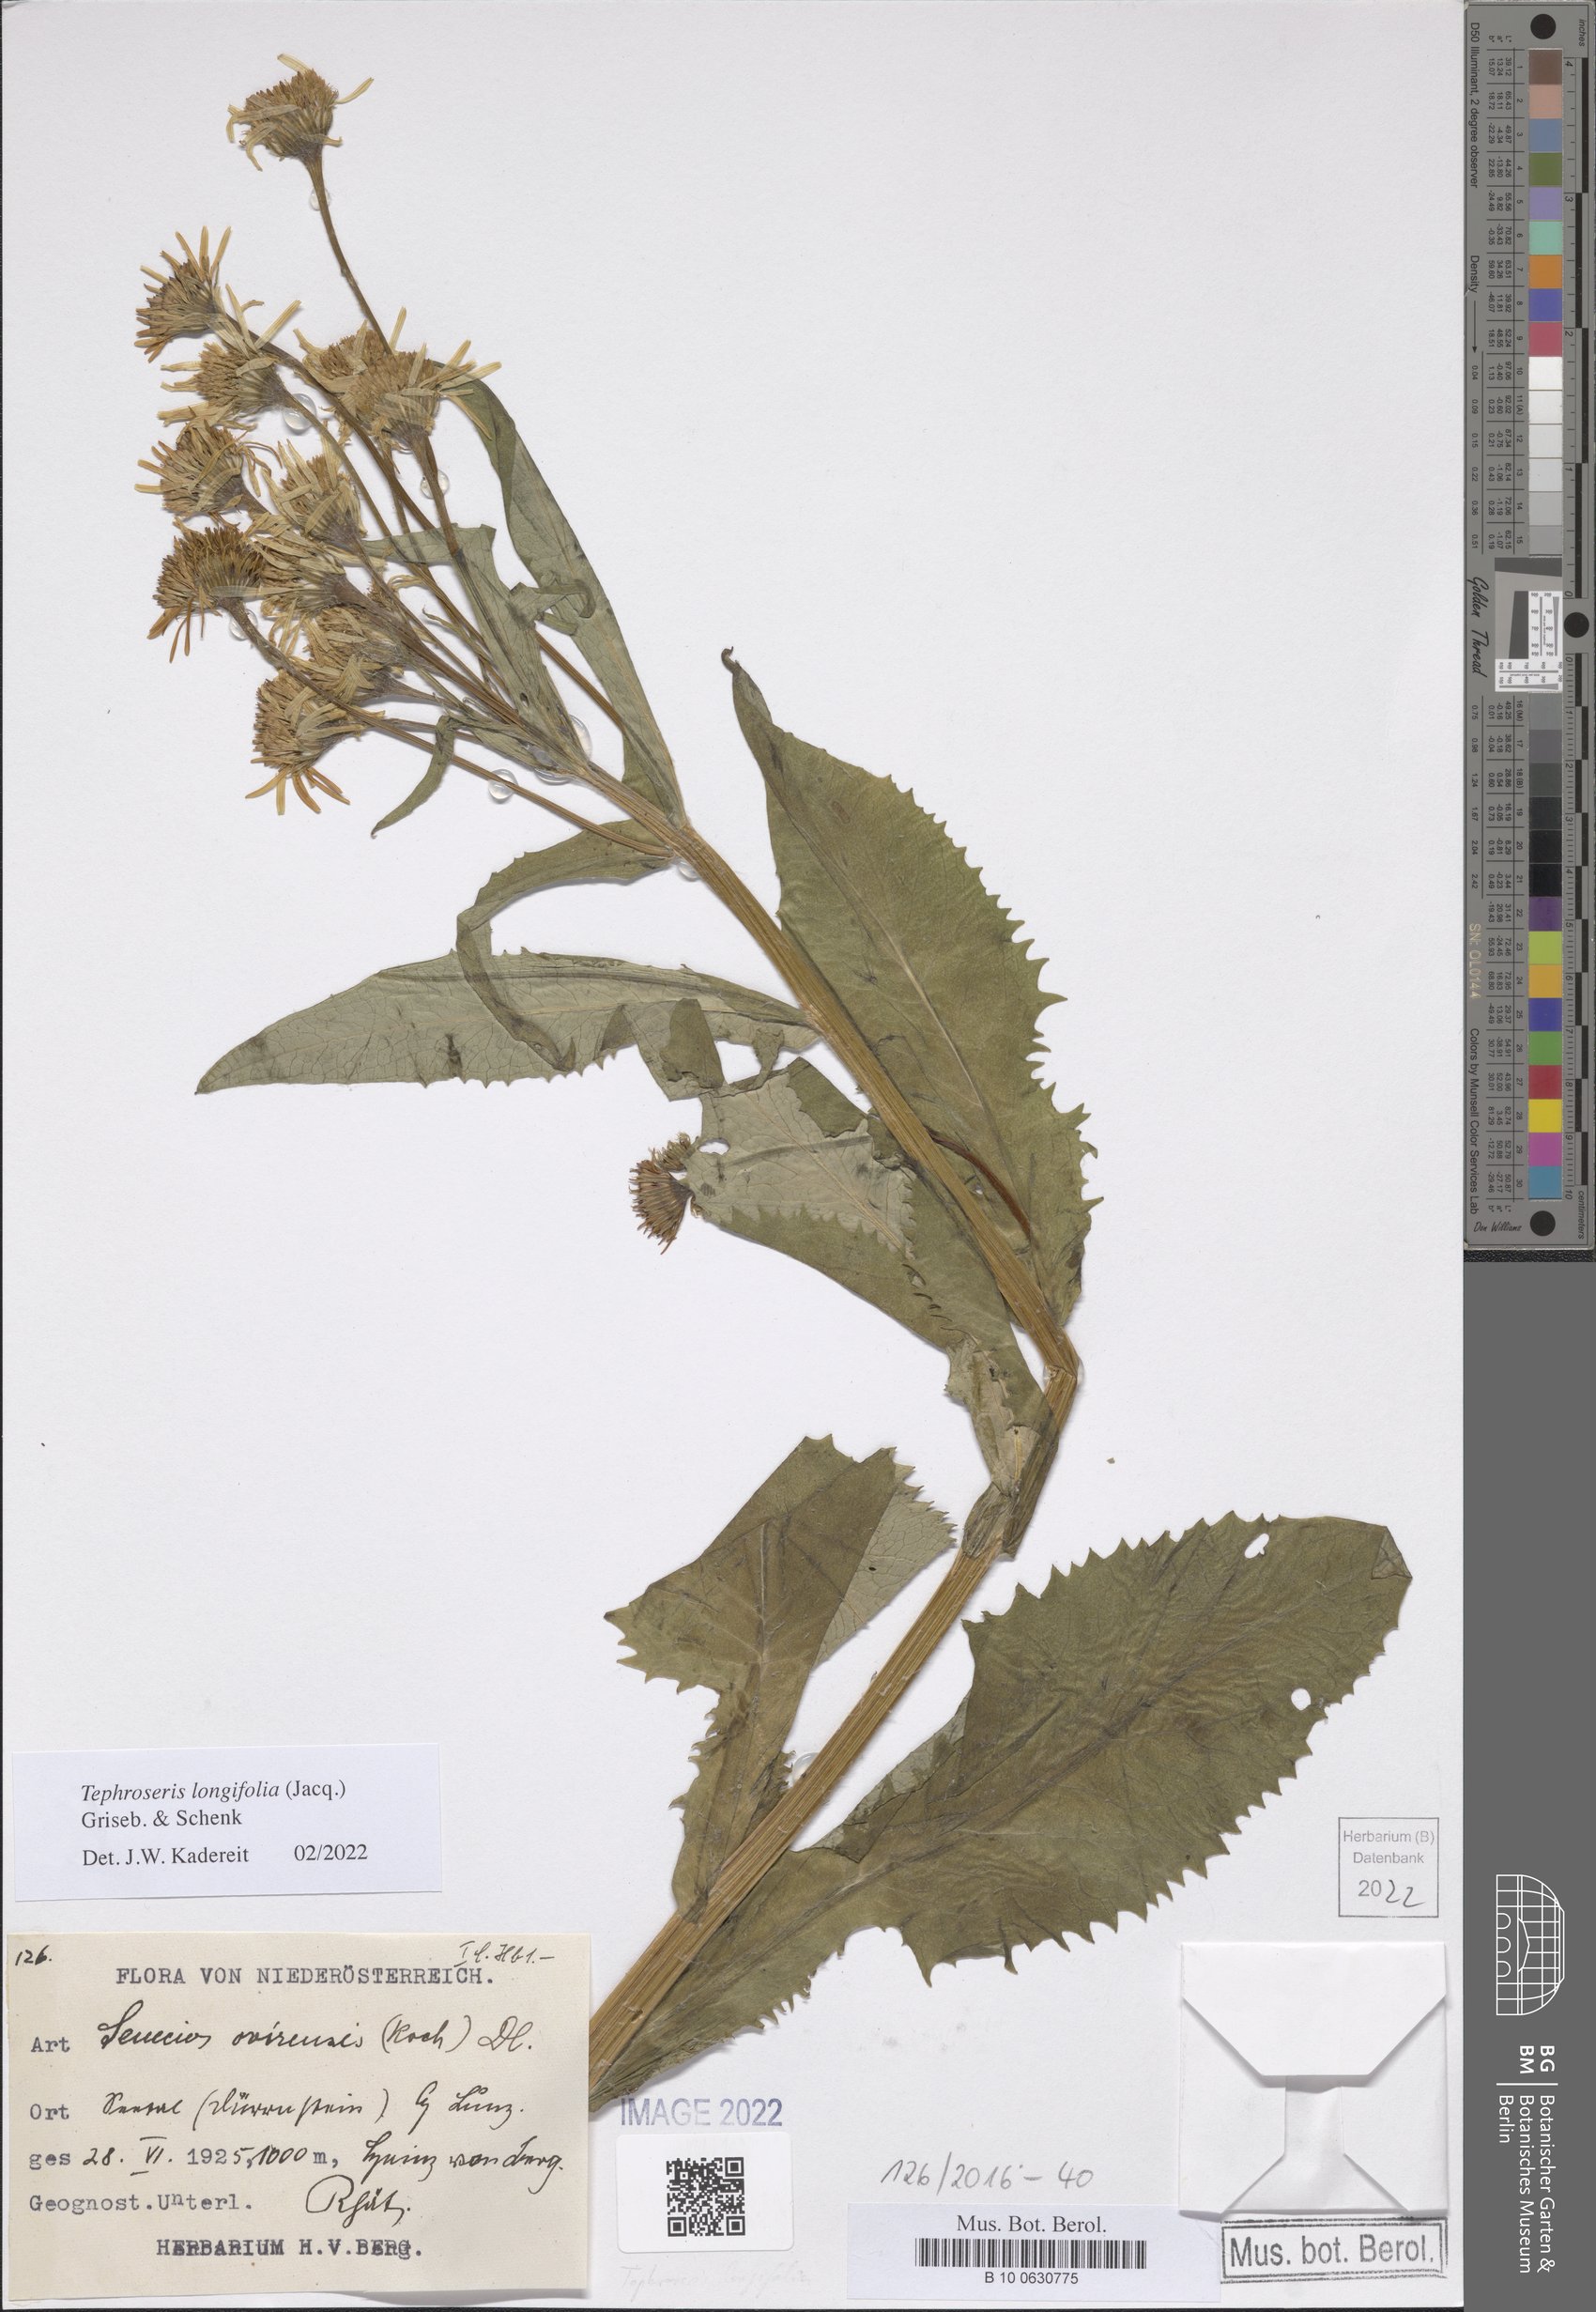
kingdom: Plantae
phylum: Tracheophyta
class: Magnoliopsida
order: Asterales
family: Asteraceae
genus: Tephroseris
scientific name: Tephroseris longifolia
